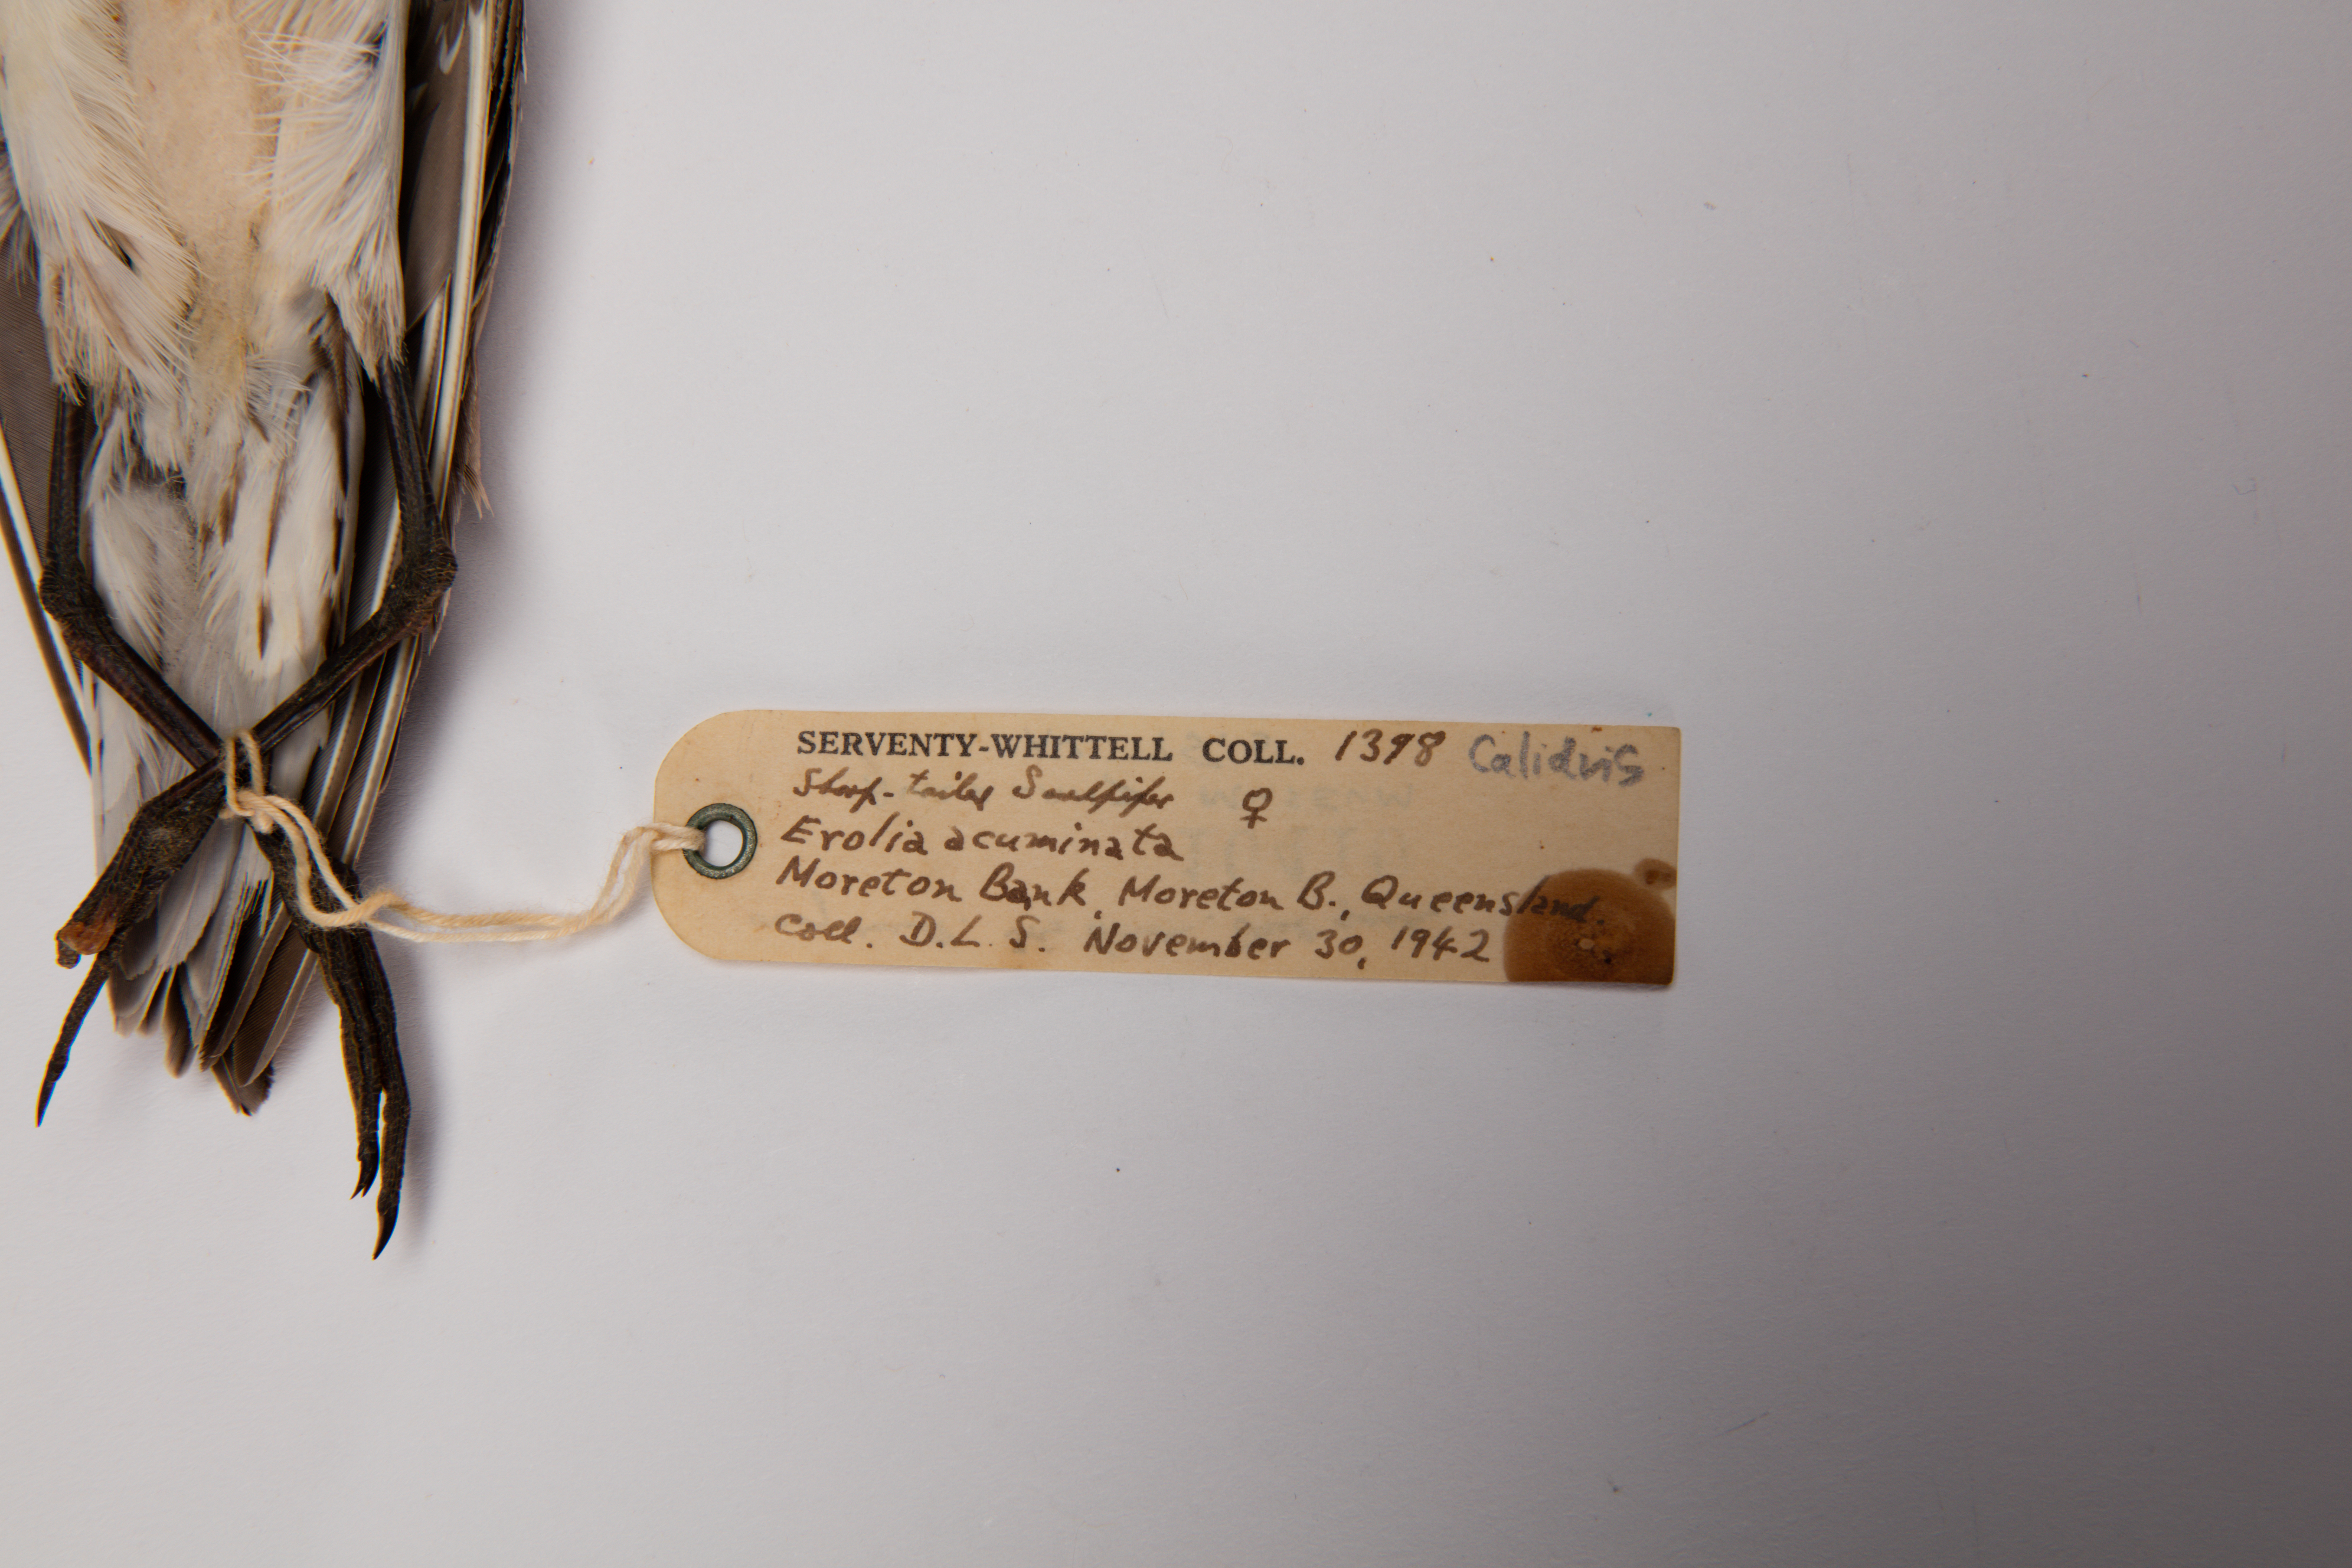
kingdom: Animalia
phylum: Chordata
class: Aves
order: Charadriiformes
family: Scolopacidae
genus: Calidris
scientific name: Calidris acuminata
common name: Sharp-tailed sandpiper
